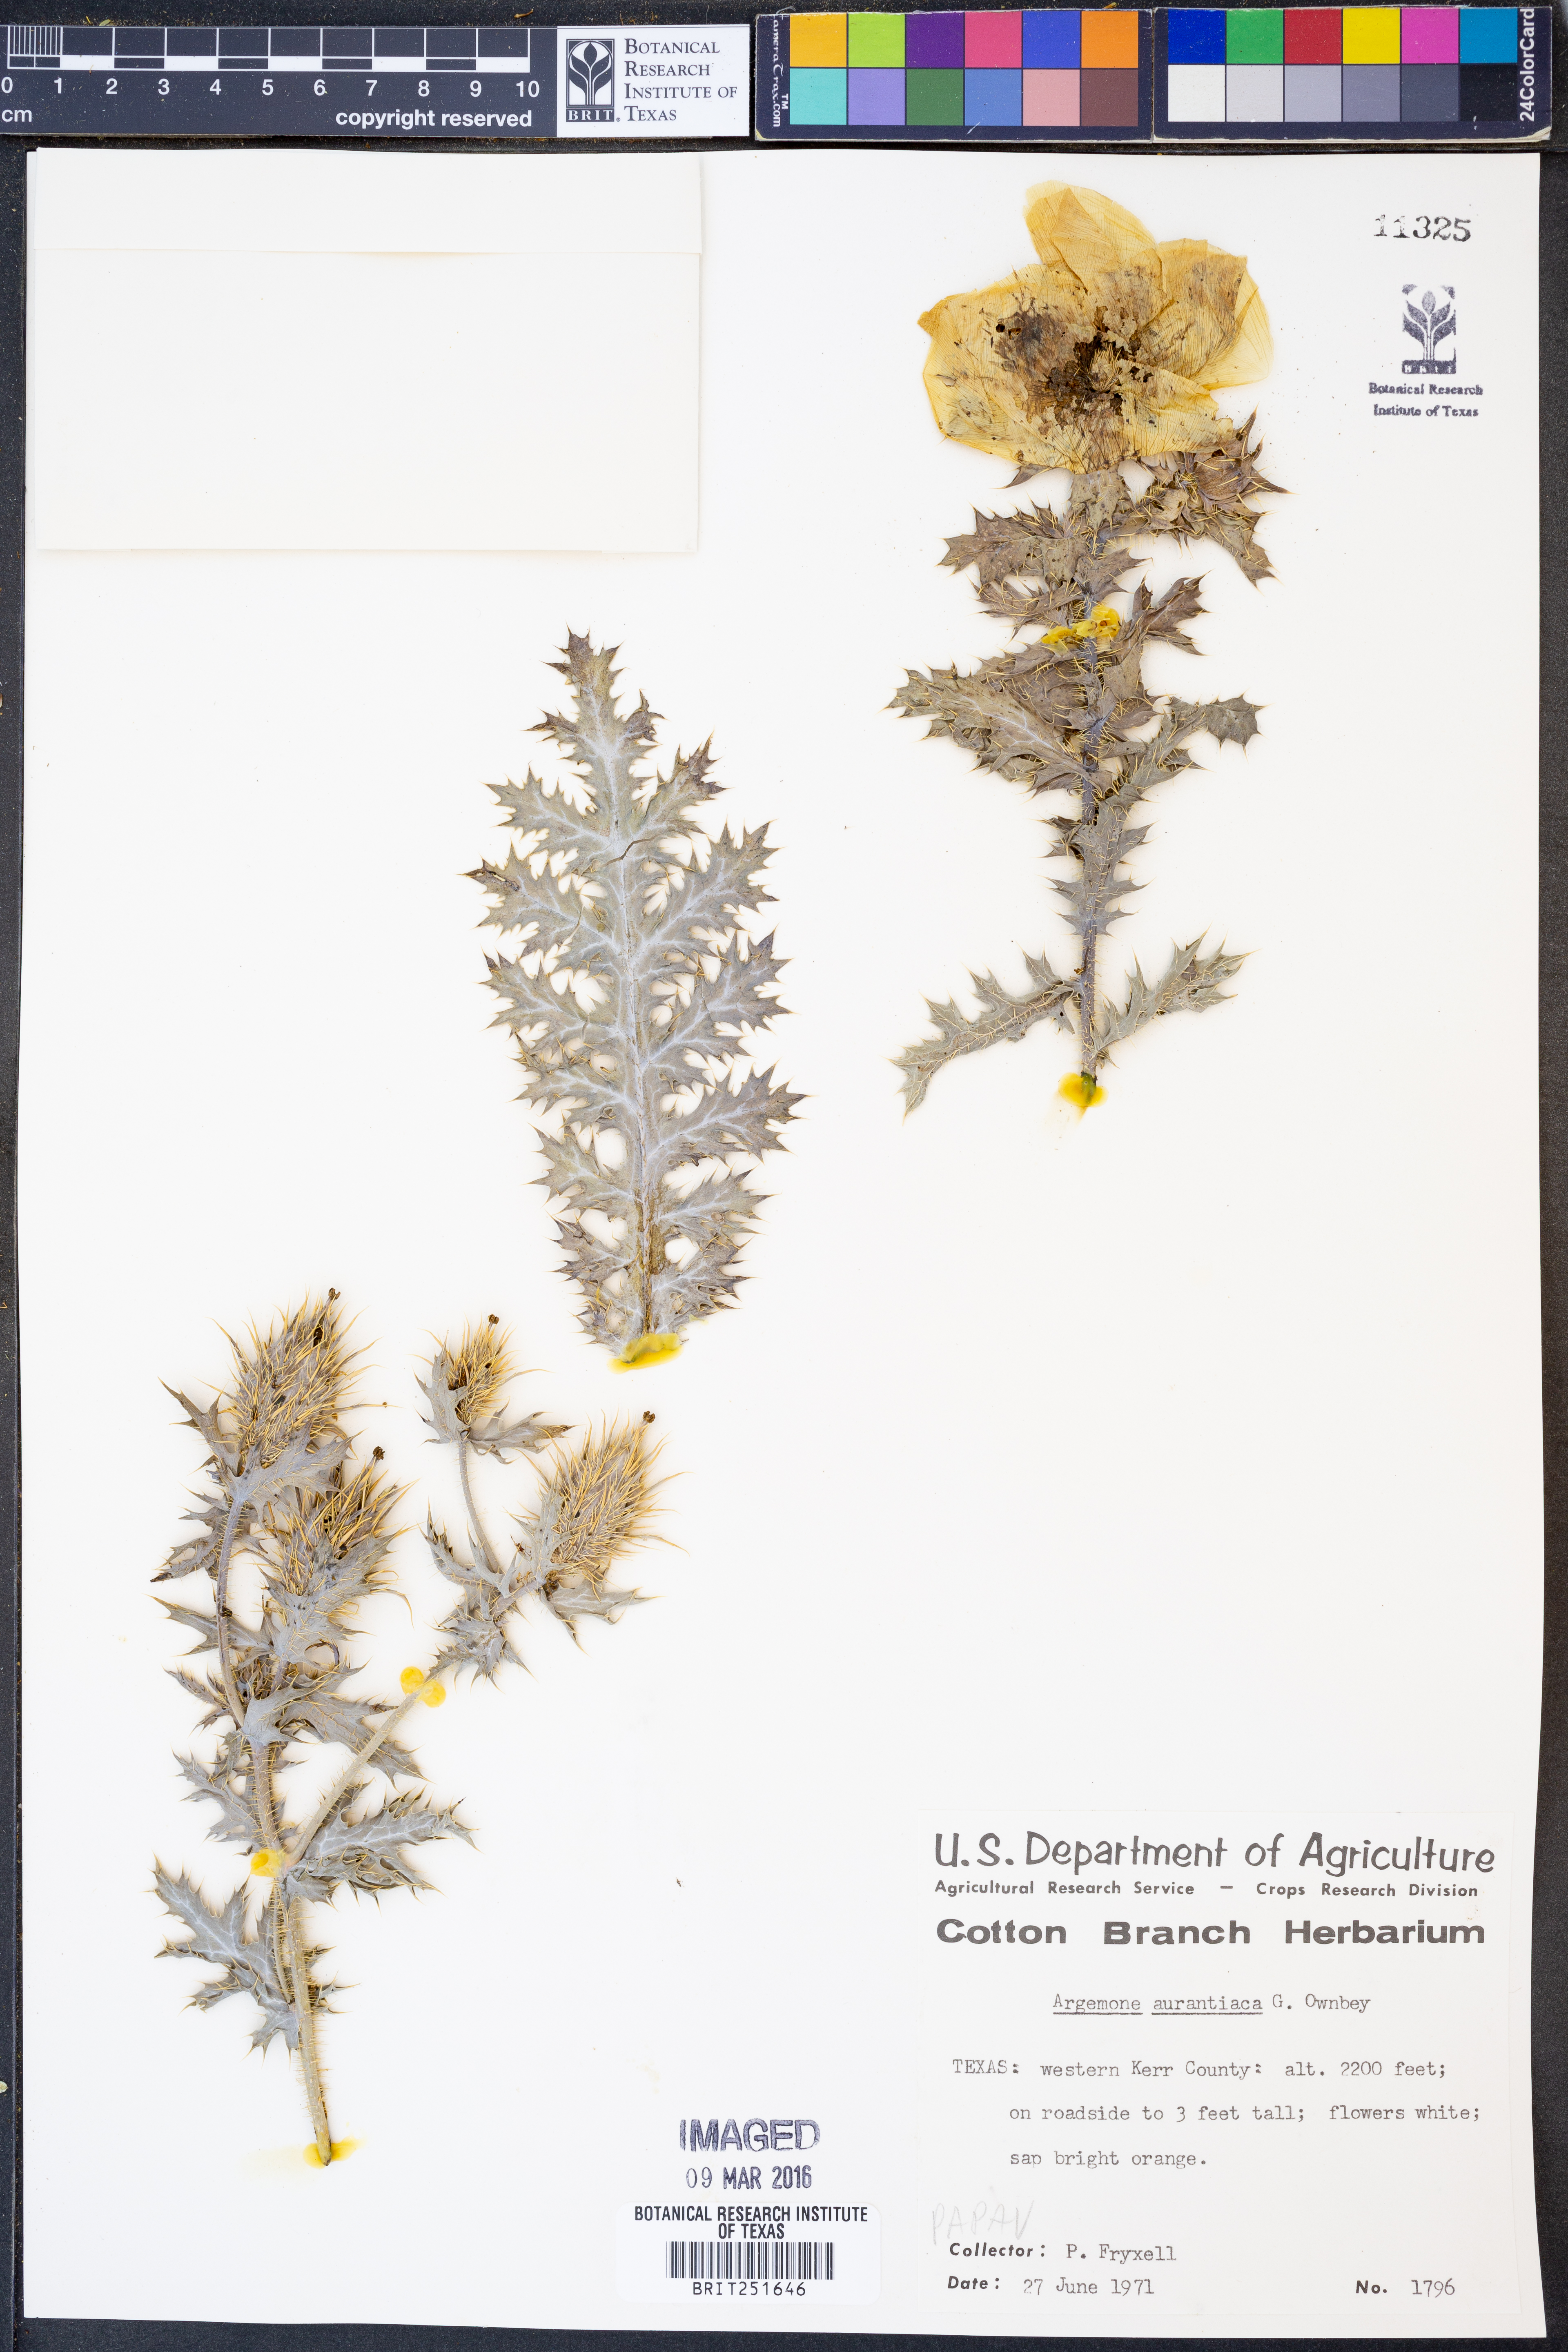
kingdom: Plantae
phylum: Tracheophyta
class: Magnoliopsida
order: Ranunculales
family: Papaveraceae
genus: Argemone
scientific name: Argemone aurantiaca
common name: Texas prickly-poppy
